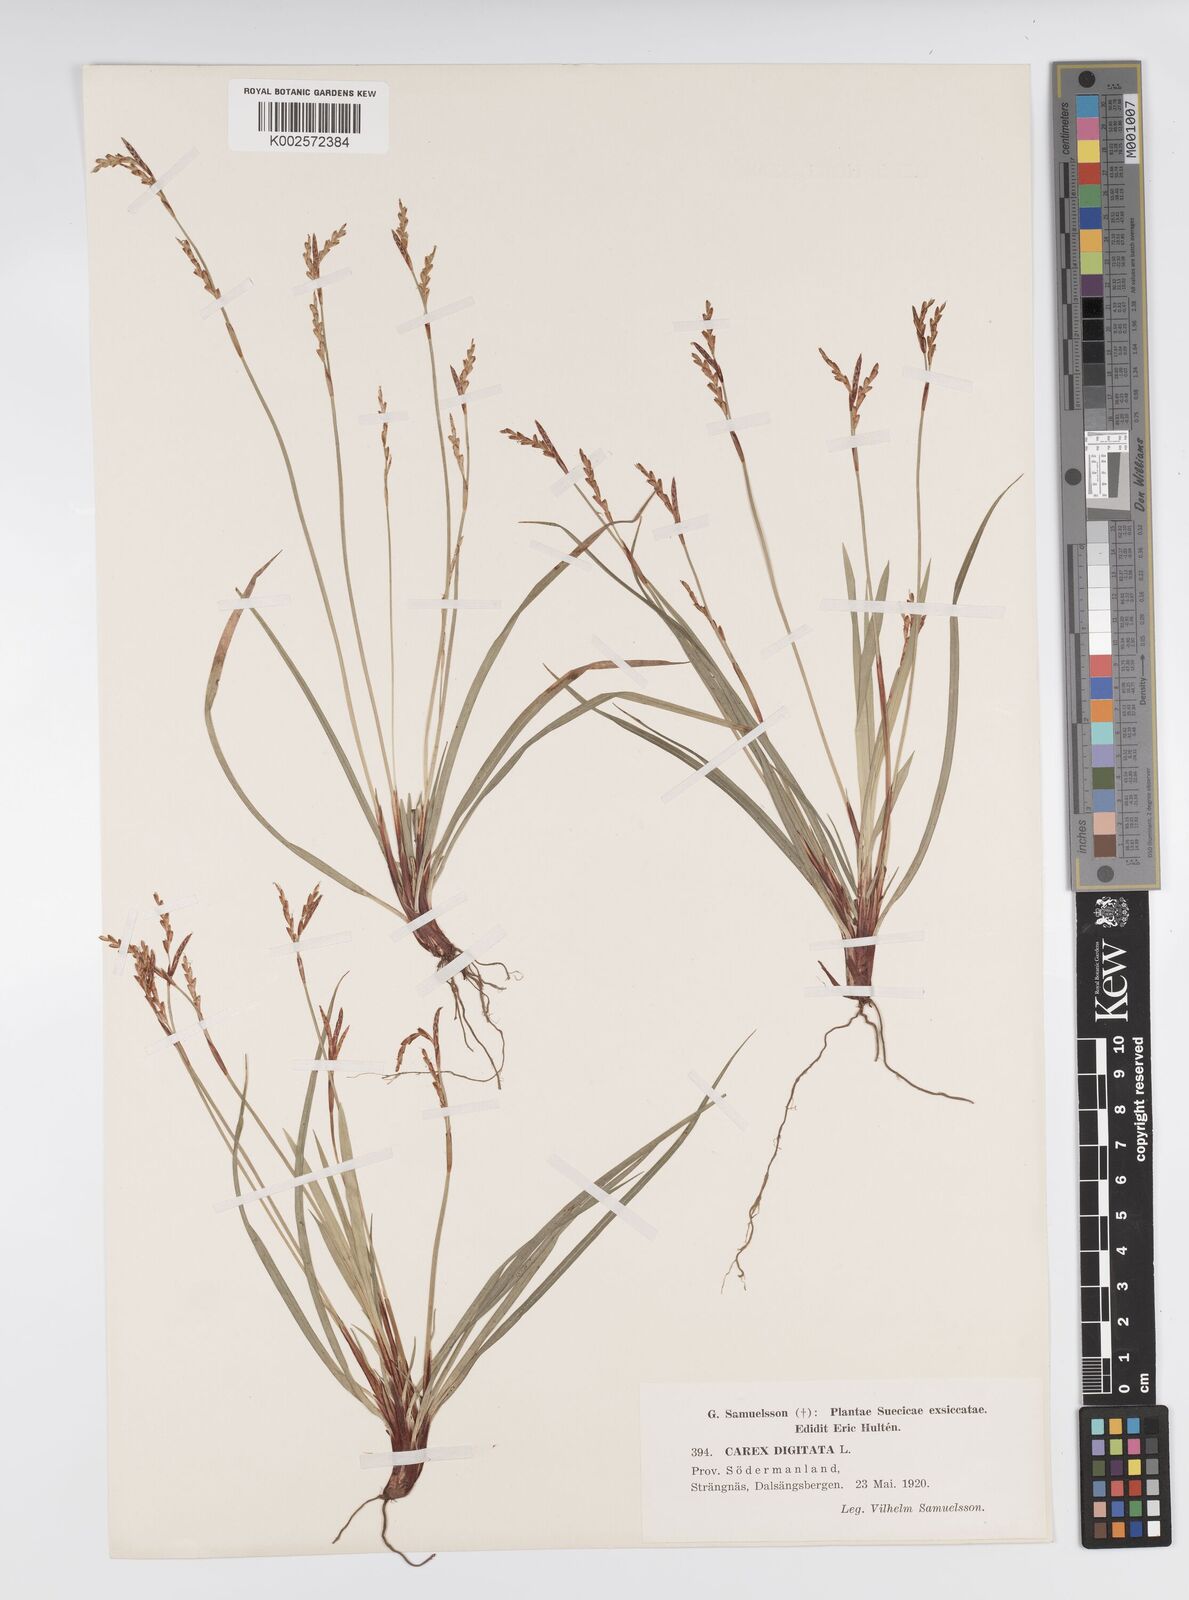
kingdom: Plantae
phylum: Tracheophyta
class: Liliopsida
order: Poales
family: Cyperaceae
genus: Carex
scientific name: Carex digitata
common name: Fingered sedge
